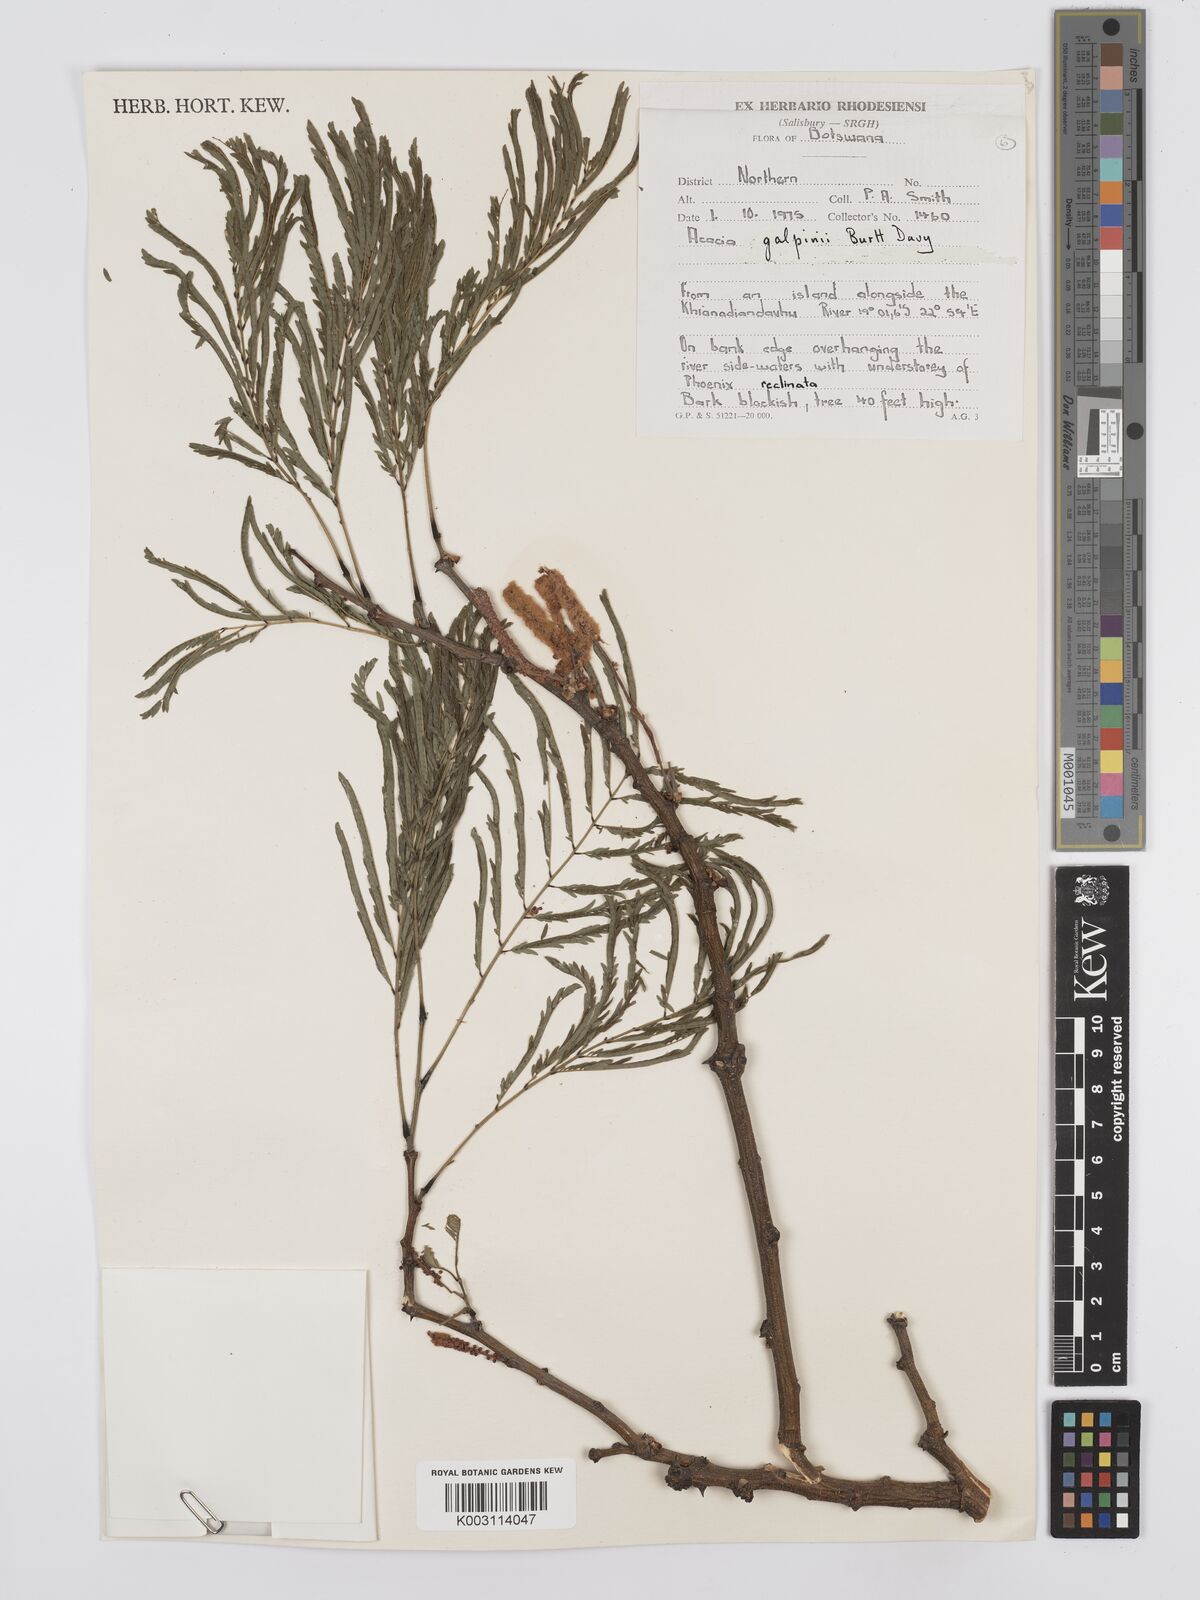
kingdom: Plantae
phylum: Tracheophyta
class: Magnoliopsida
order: Fabales
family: Fabaceae
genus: Senegalia
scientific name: Senegalia galpinii
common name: Monkey-thorn
